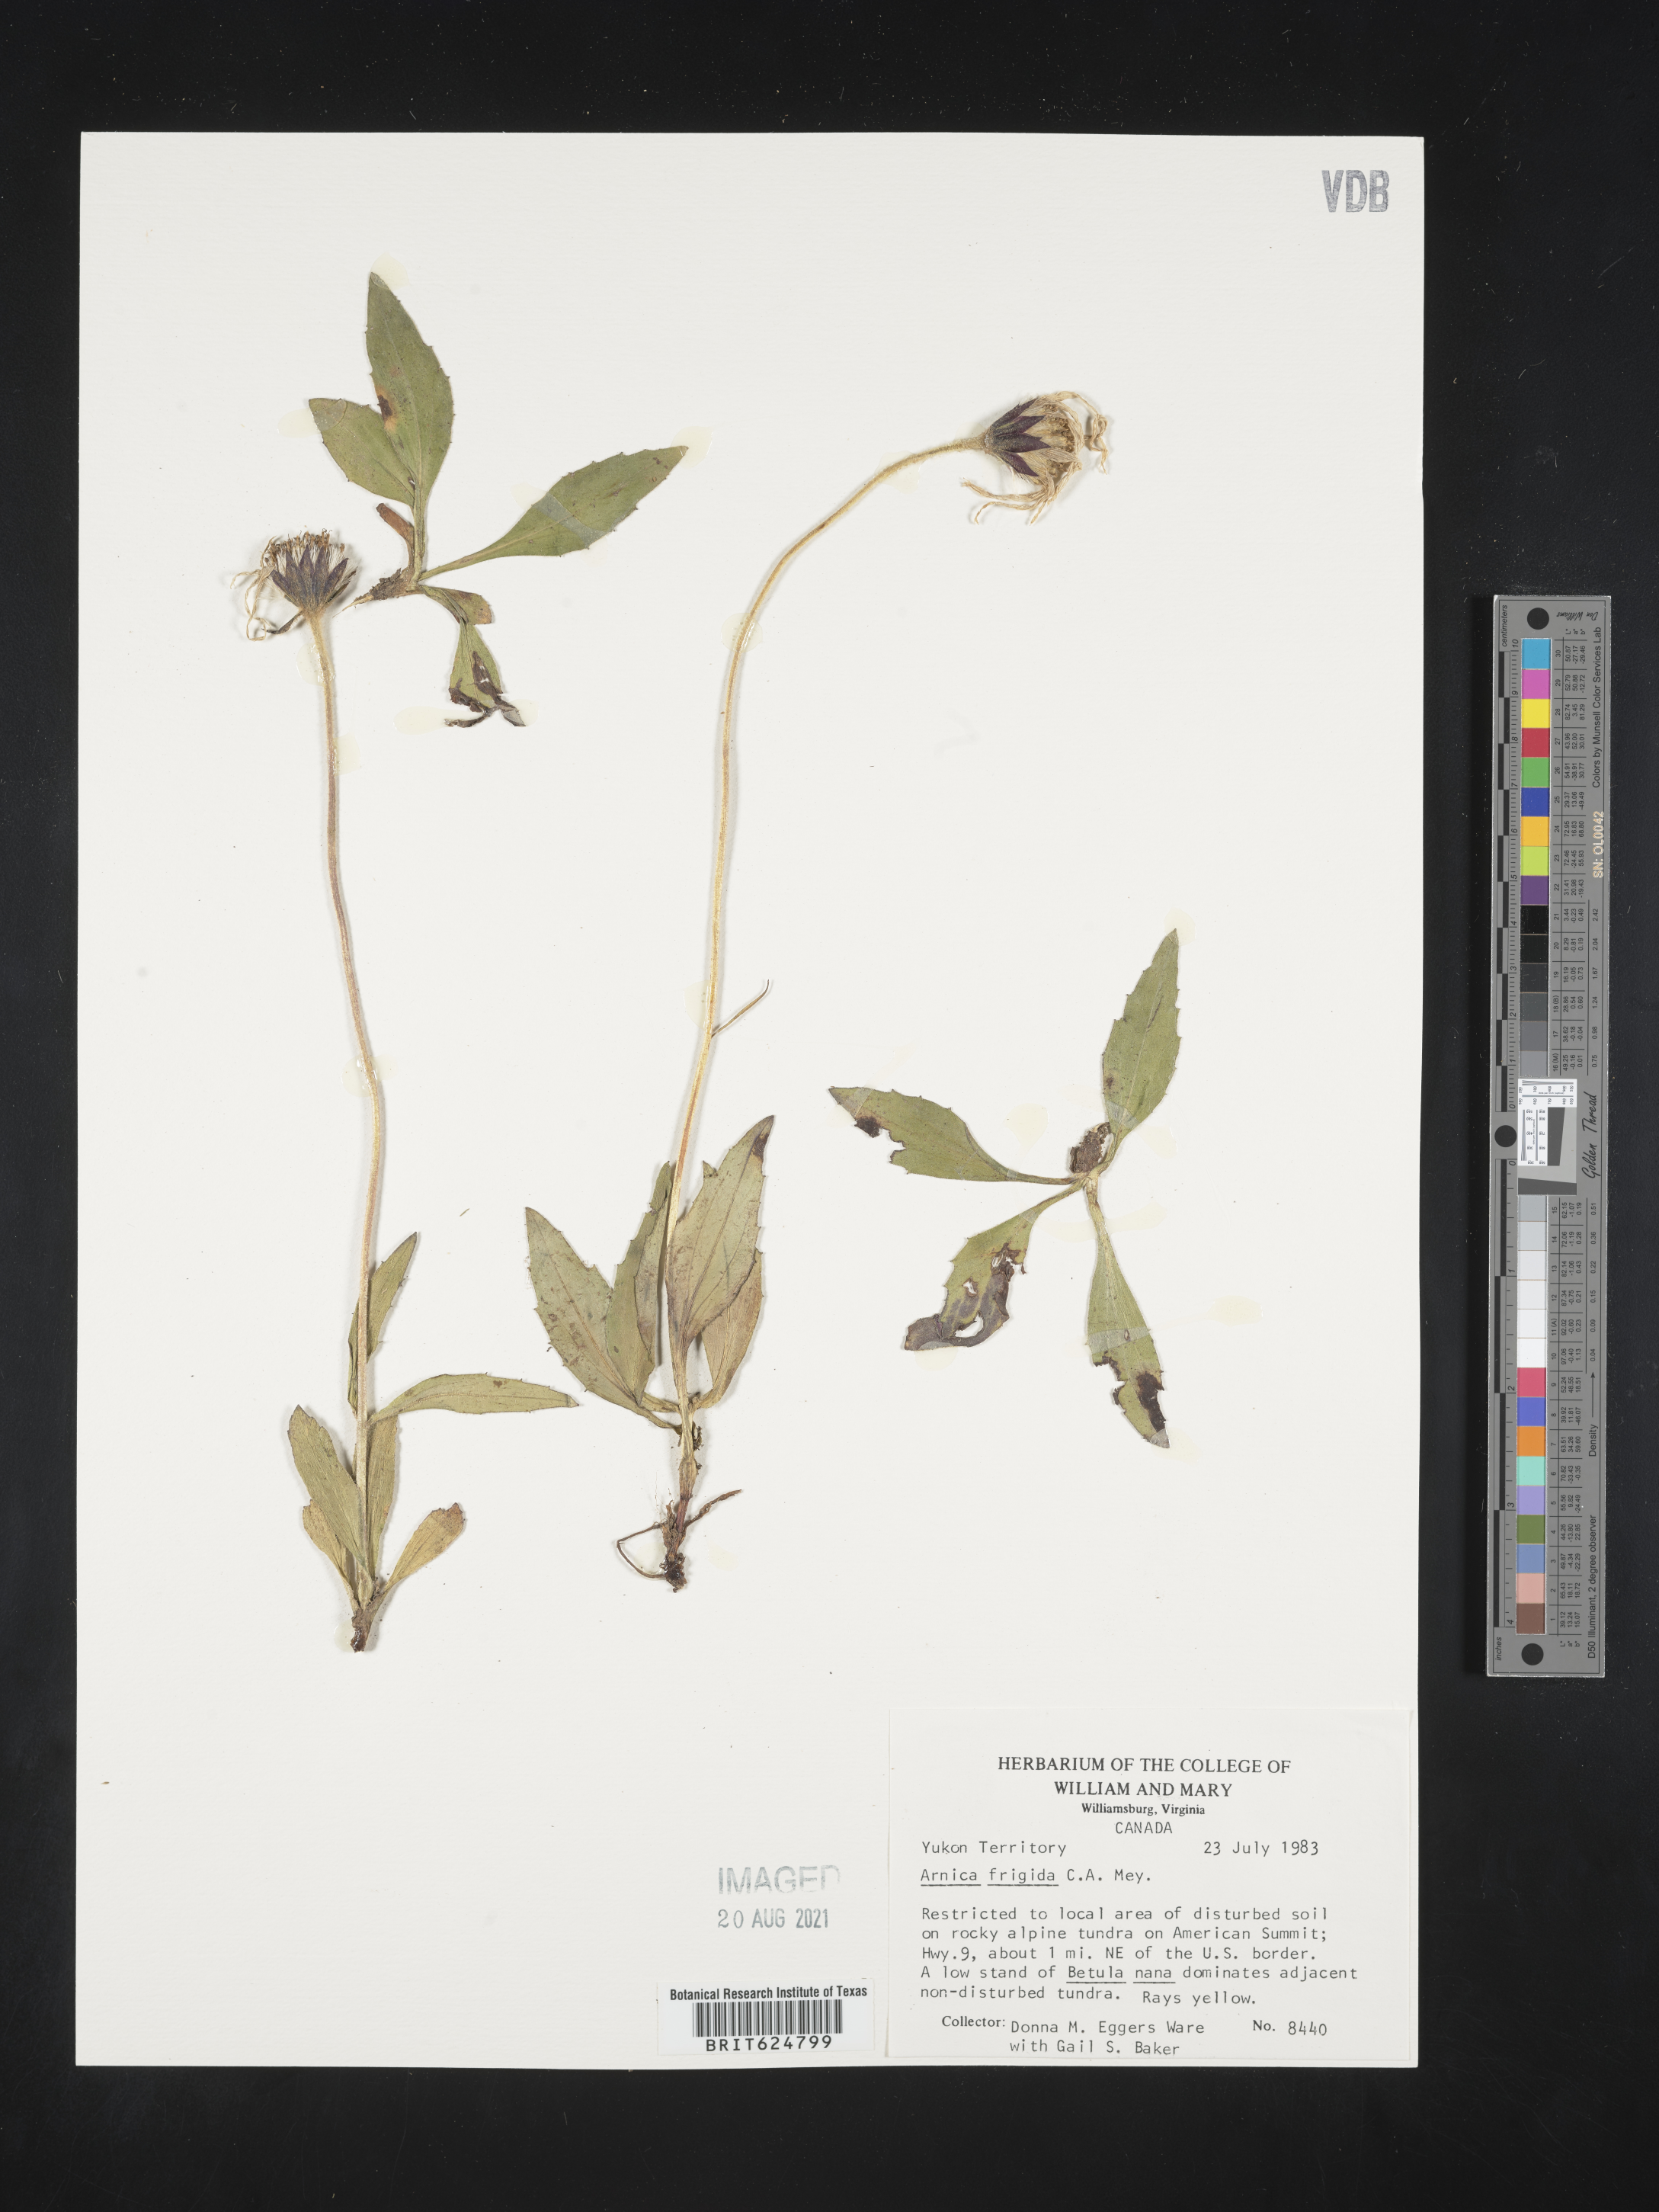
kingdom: Plantae
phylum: Tracheophyta
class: Magnoliopsida
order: Asterales
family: Asteraceae
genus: Arnica
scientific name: Arnica griscomii
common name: Snow arnica
